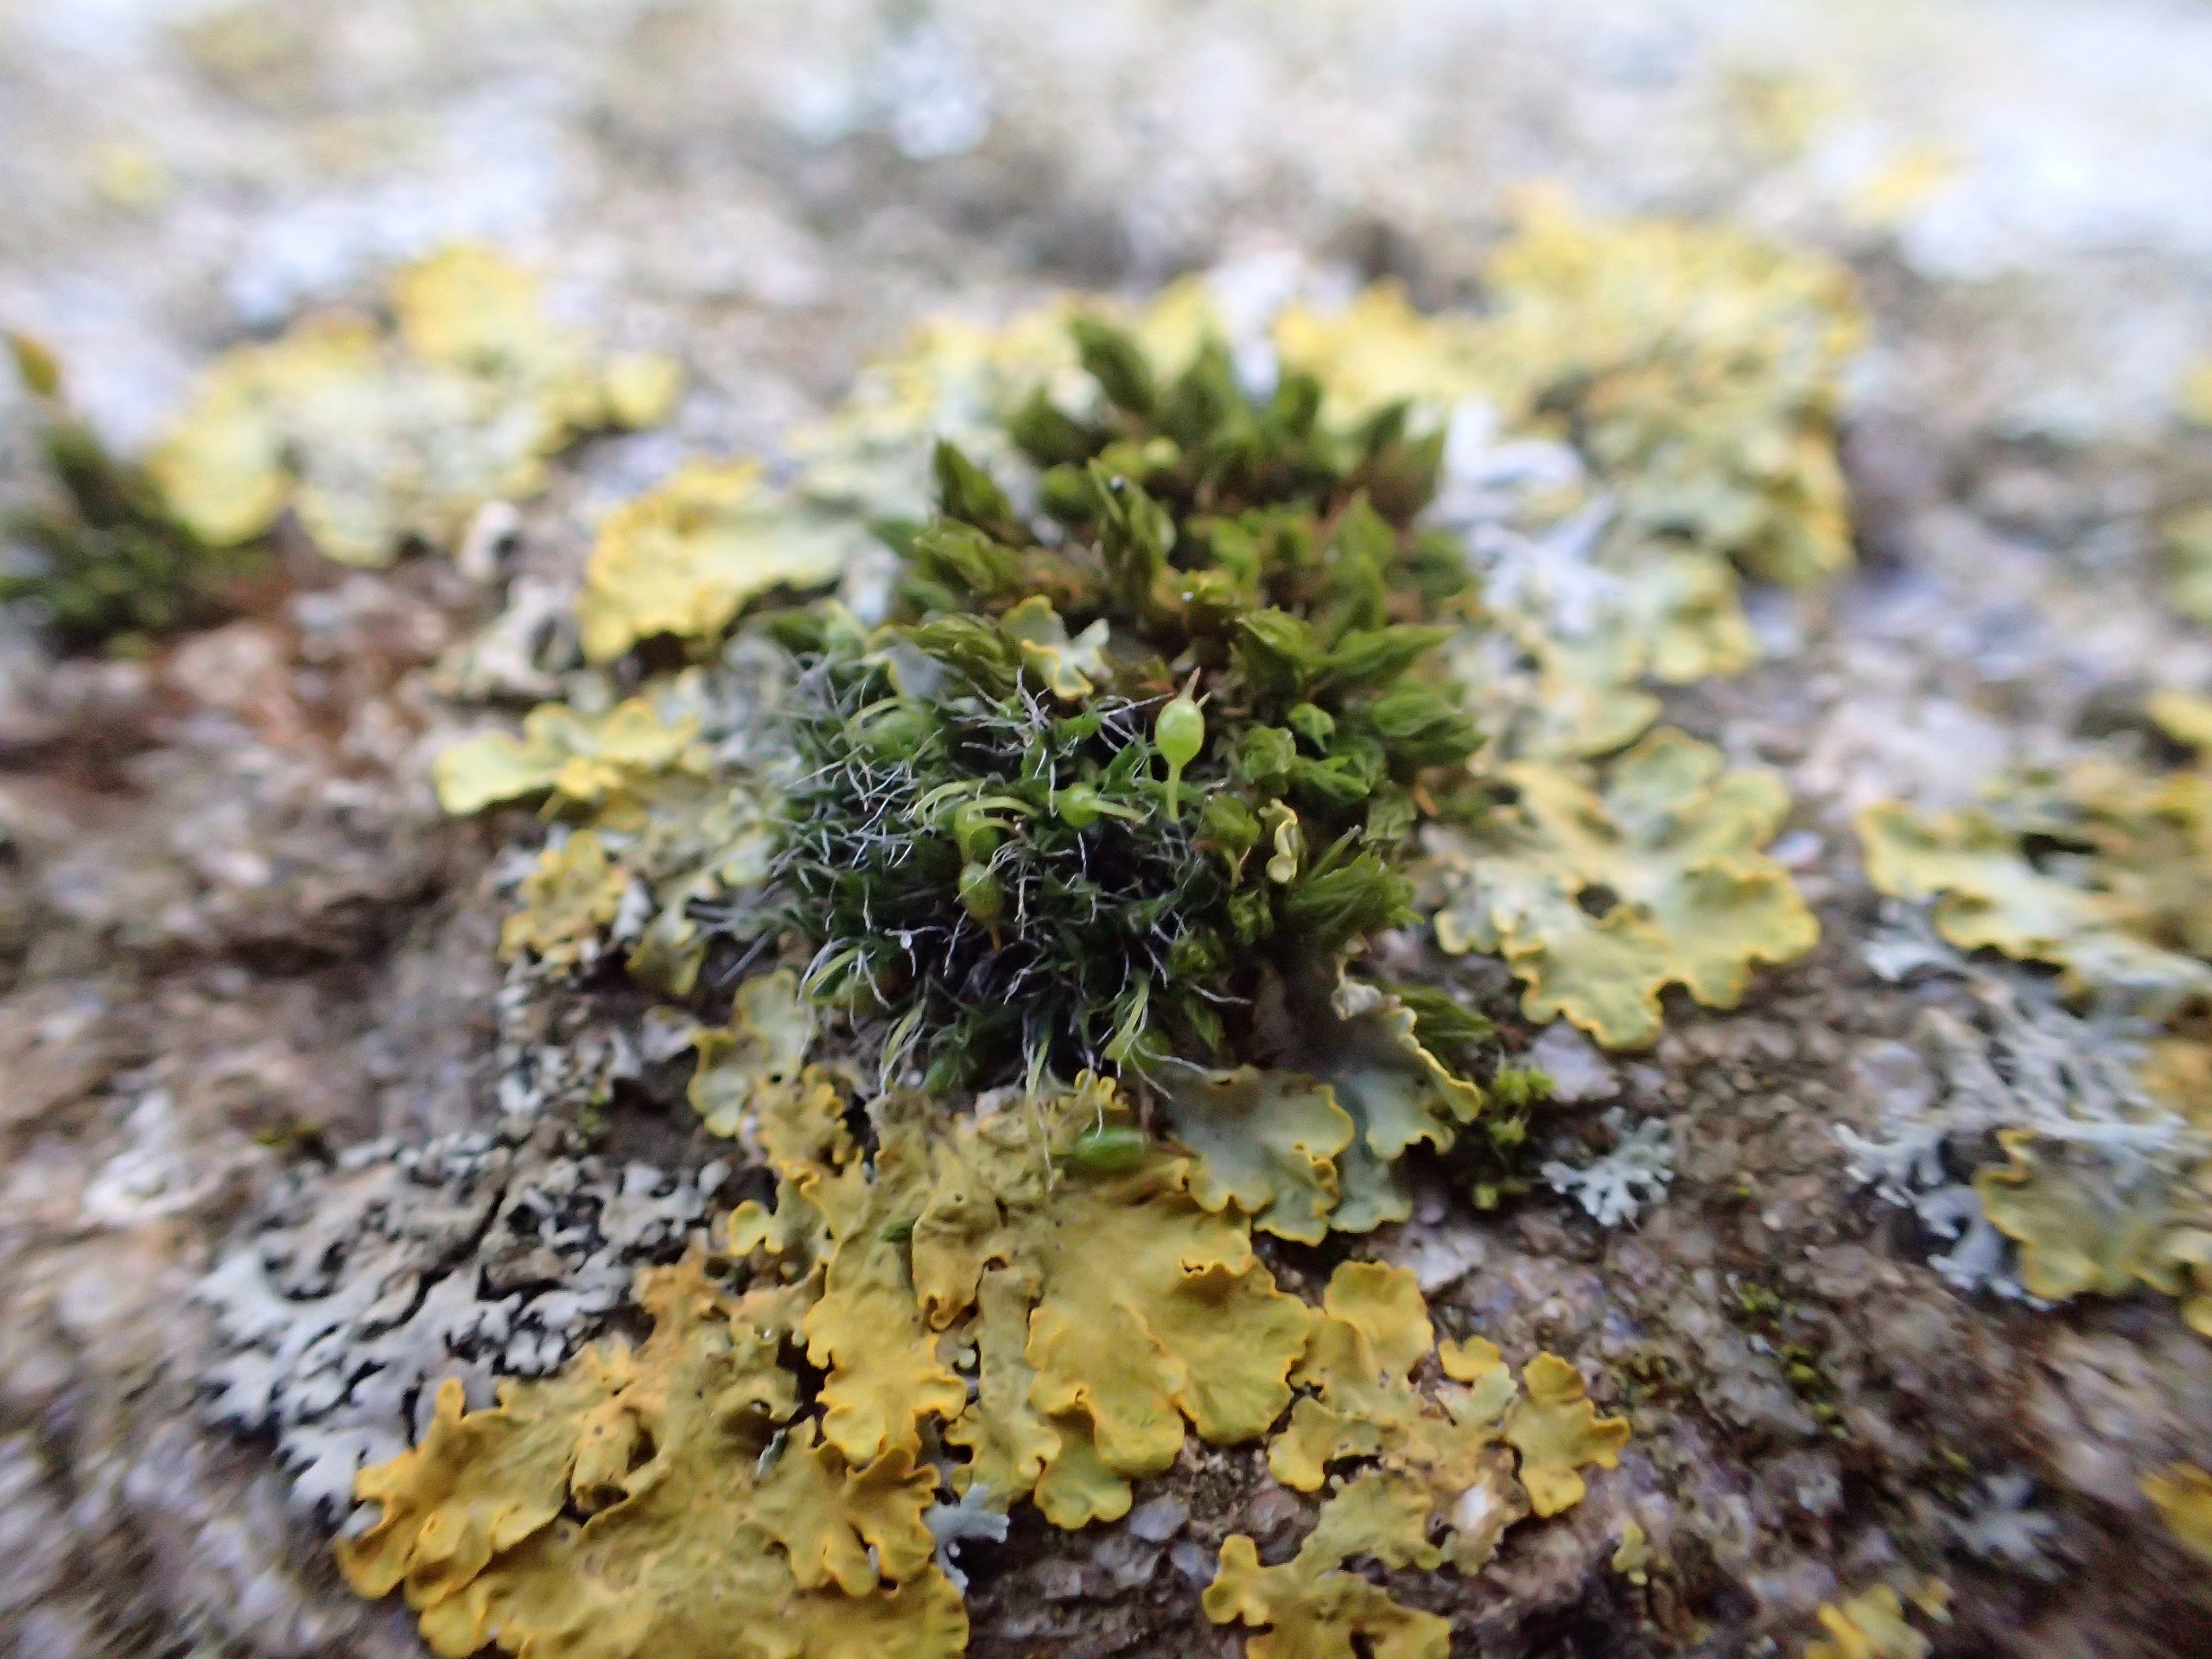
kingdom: Plantae
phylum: Bryophyta
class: Bryopsida
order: Grimmiales
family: Grimmiaceae
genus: Grimmia
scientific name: Grimmia pulvinata
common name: Pude-gråmos
